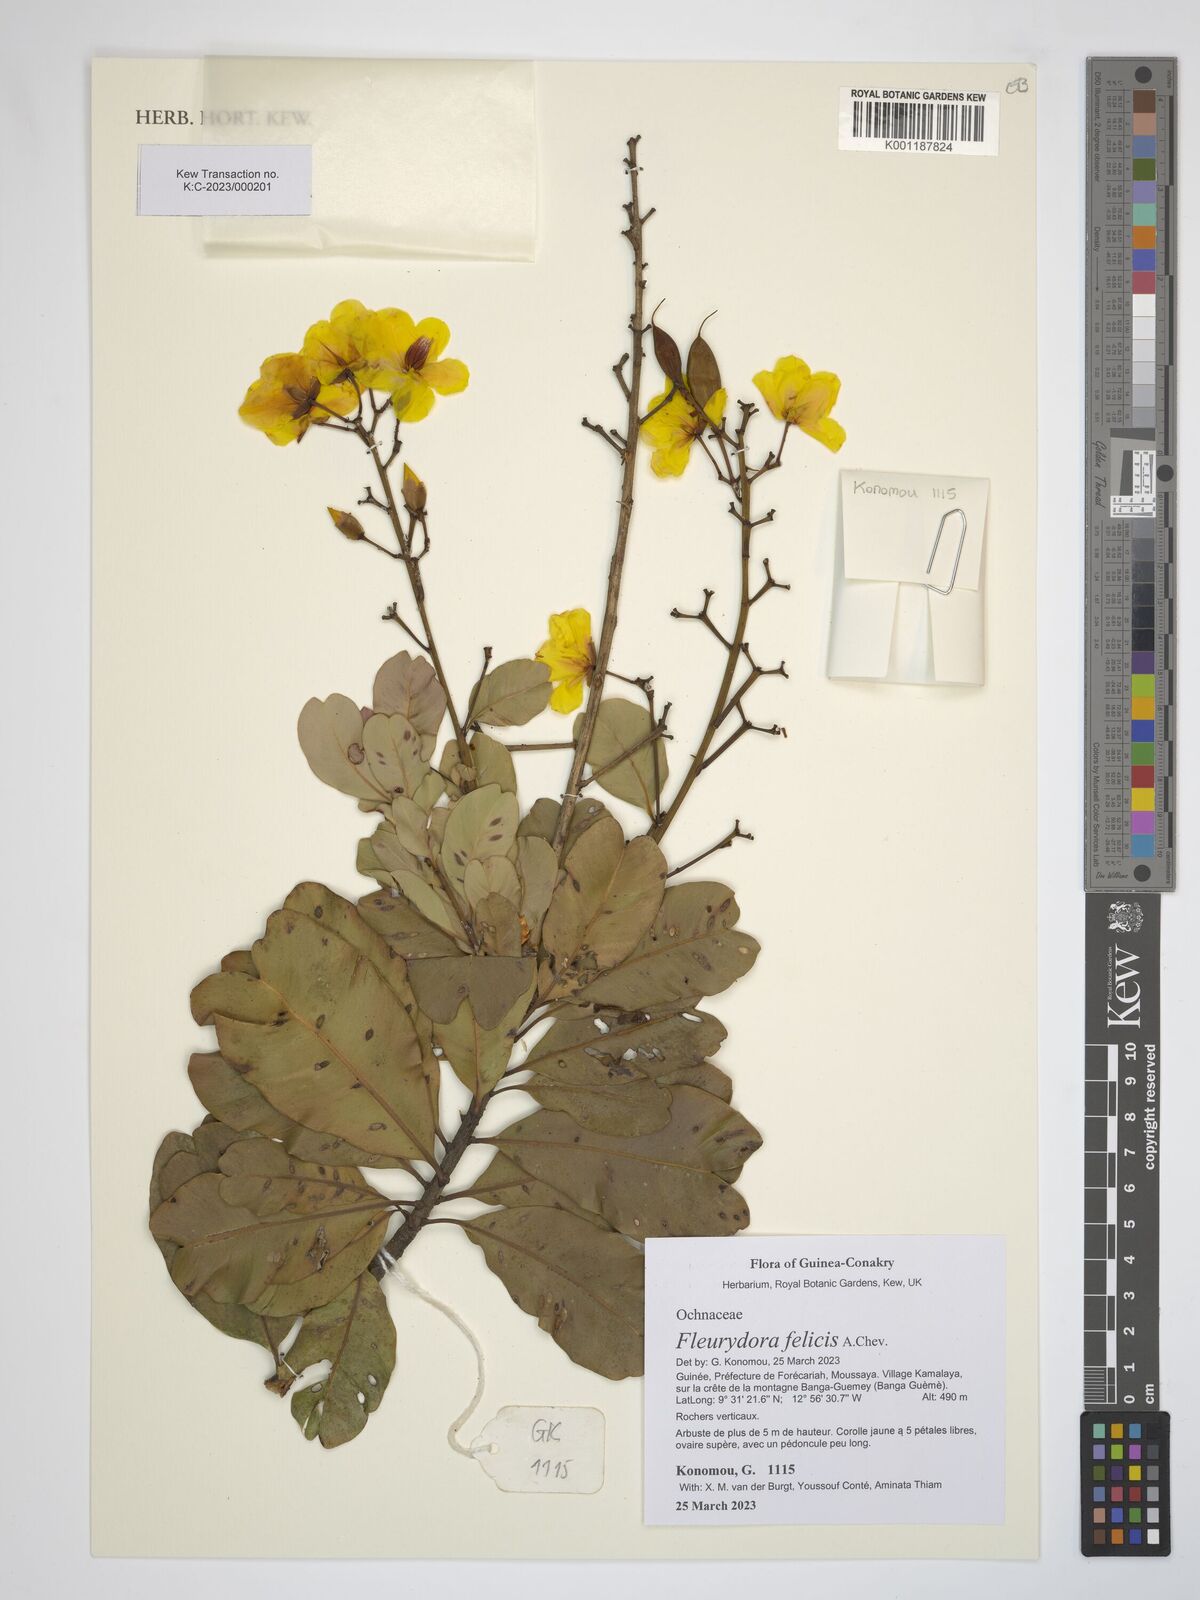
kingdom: Plantae
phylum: Tracheophyta
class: Magnoliopsida
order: Malpighiales
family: Ochnaceae
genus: Fleurydora
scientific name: Fleurydora felicis
